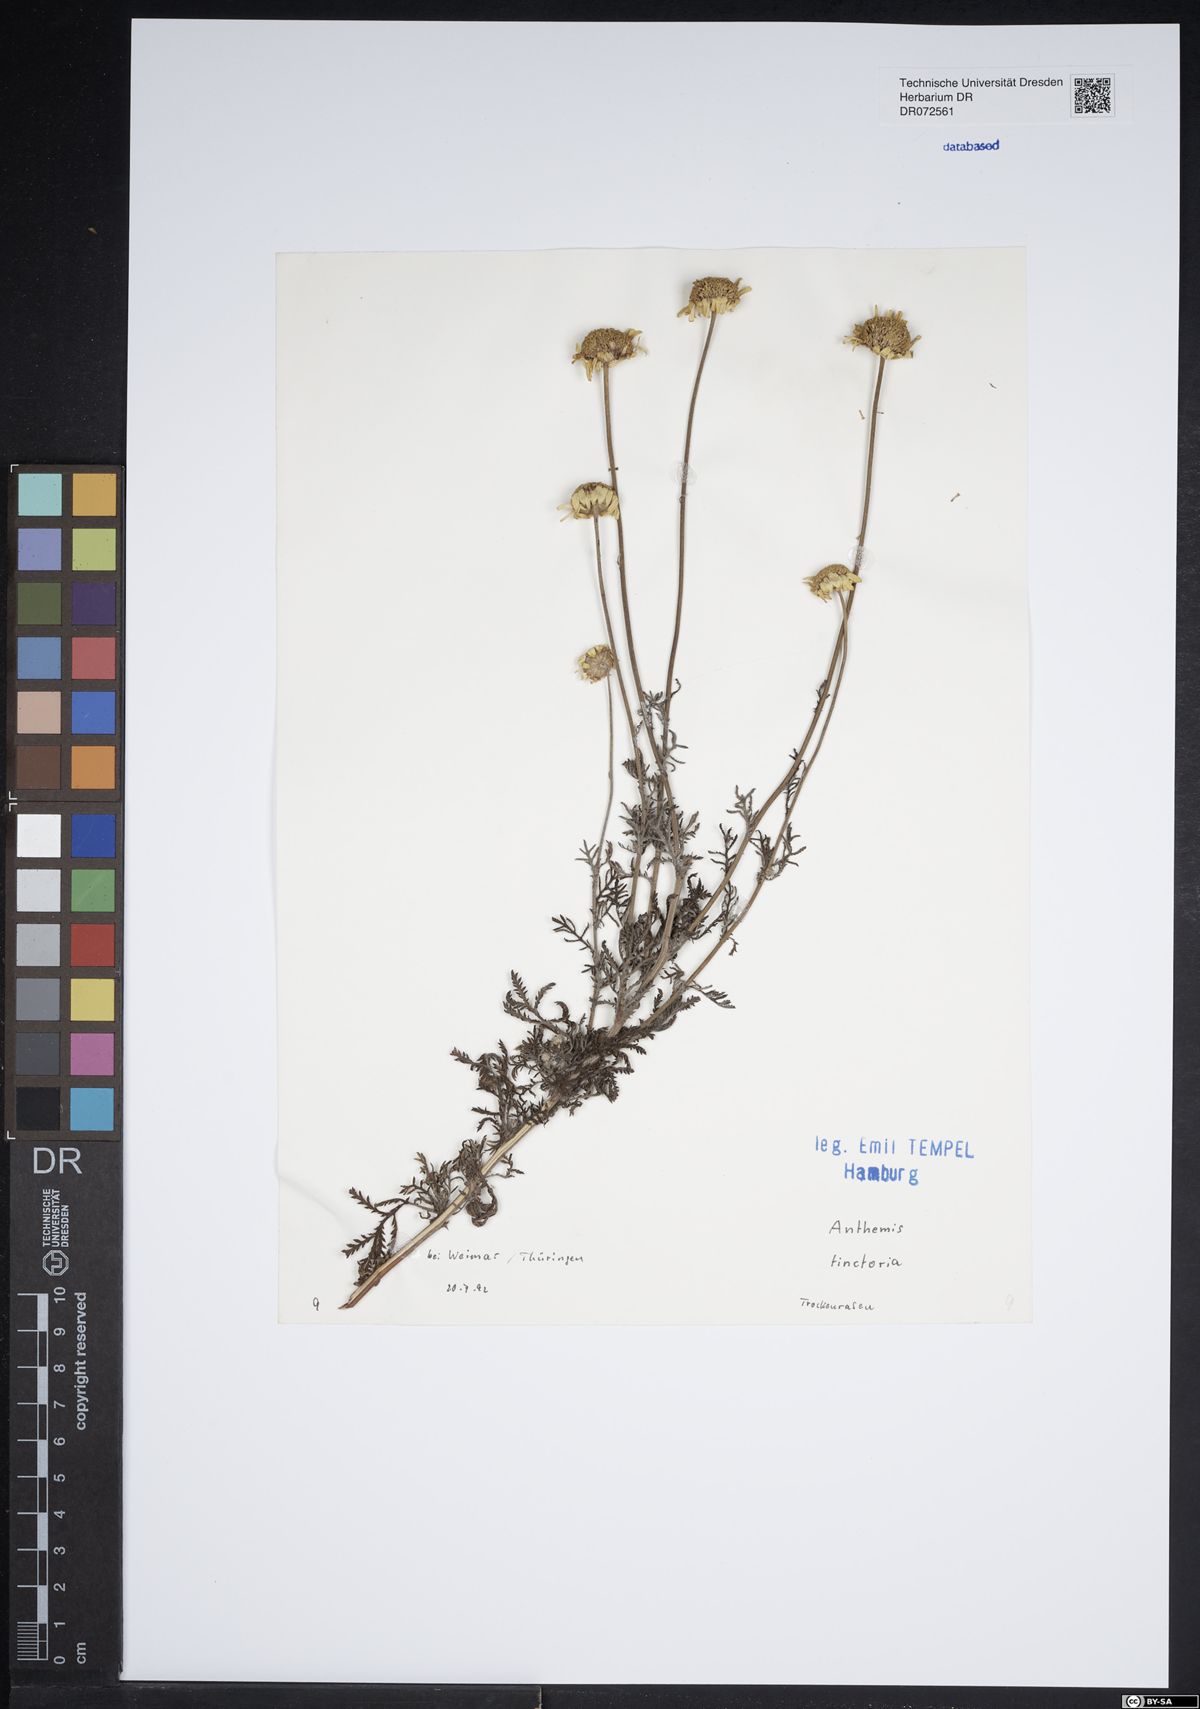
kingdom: Plantae
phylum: Tracheophyta
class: Magnoliopsida
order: Asterales
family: Asteraceae
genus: Cota
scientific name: Cota tinctoria
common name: Golden chamomile
